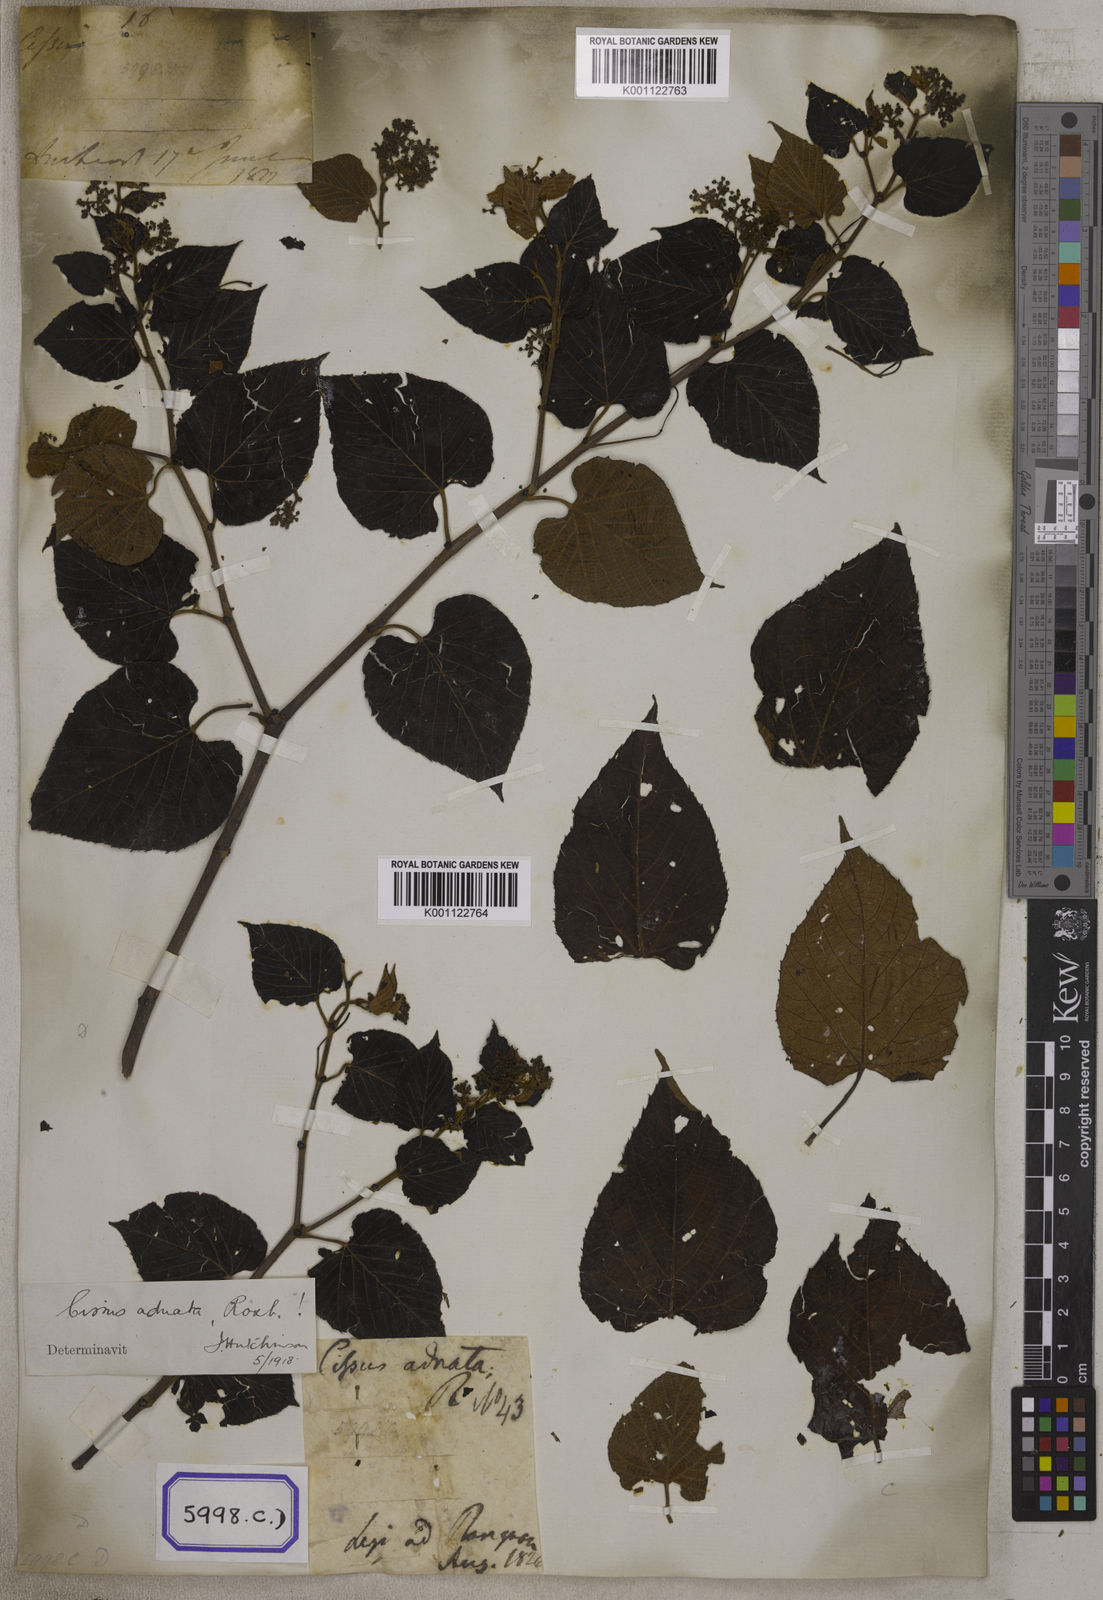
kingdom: Plantae
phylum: Tracheophyta
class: Magnoliopsida
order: Vitales
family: Vitaceae
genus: Cissus
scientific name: Cissus adnata
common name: Heart-leaf-grape
